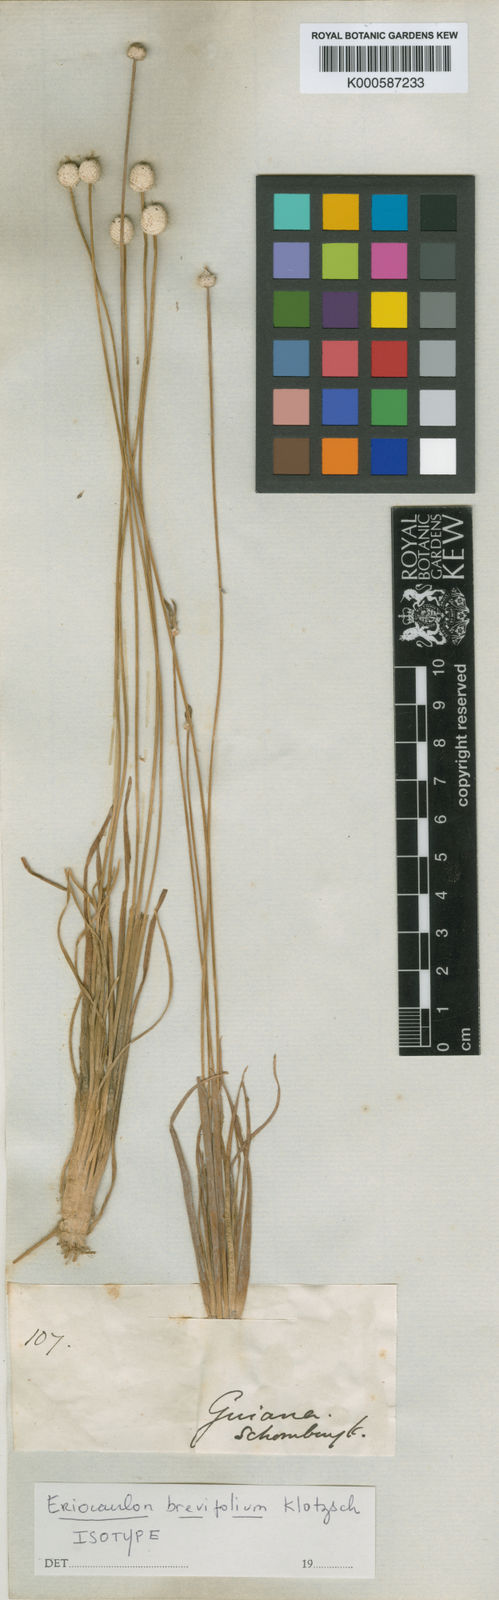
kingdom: Plantae
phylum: Tracheophyta
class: Liliopsida
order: Poales
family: Eriocaulaceae
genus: Eriocaulon
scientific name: Eriocaulon
